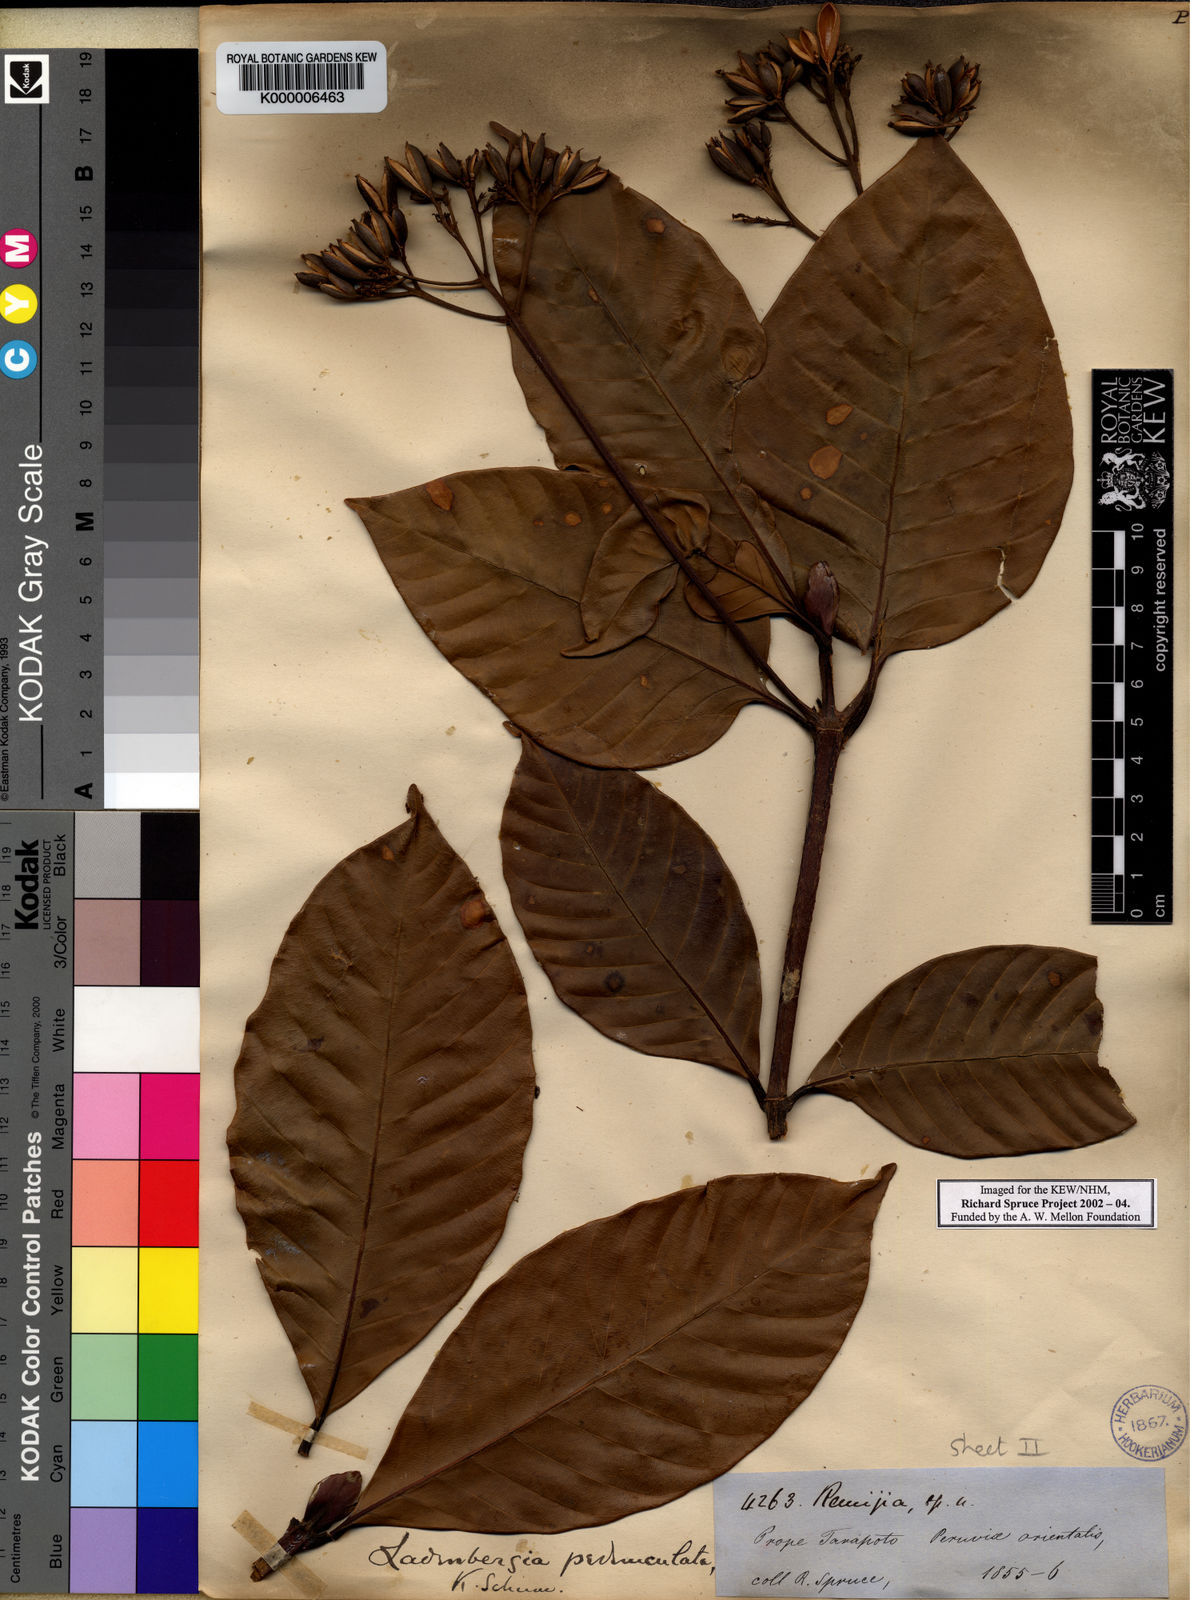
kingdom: Plantae
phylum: Tracheophyta
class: Magnoliopsida
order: Gentianales
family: Rubiaceae
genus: Ciliosemina
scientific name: Ciliosemina pedunculata
